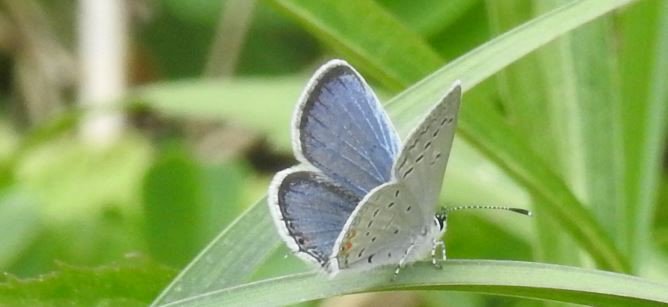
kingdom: Animalia
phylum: Arthropoda
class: Insecta
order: Lepidoptera
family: Lycaenidae
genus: Elkalyce
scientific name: Elkalyce comyntas
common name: Eastern Tailed-Blue
